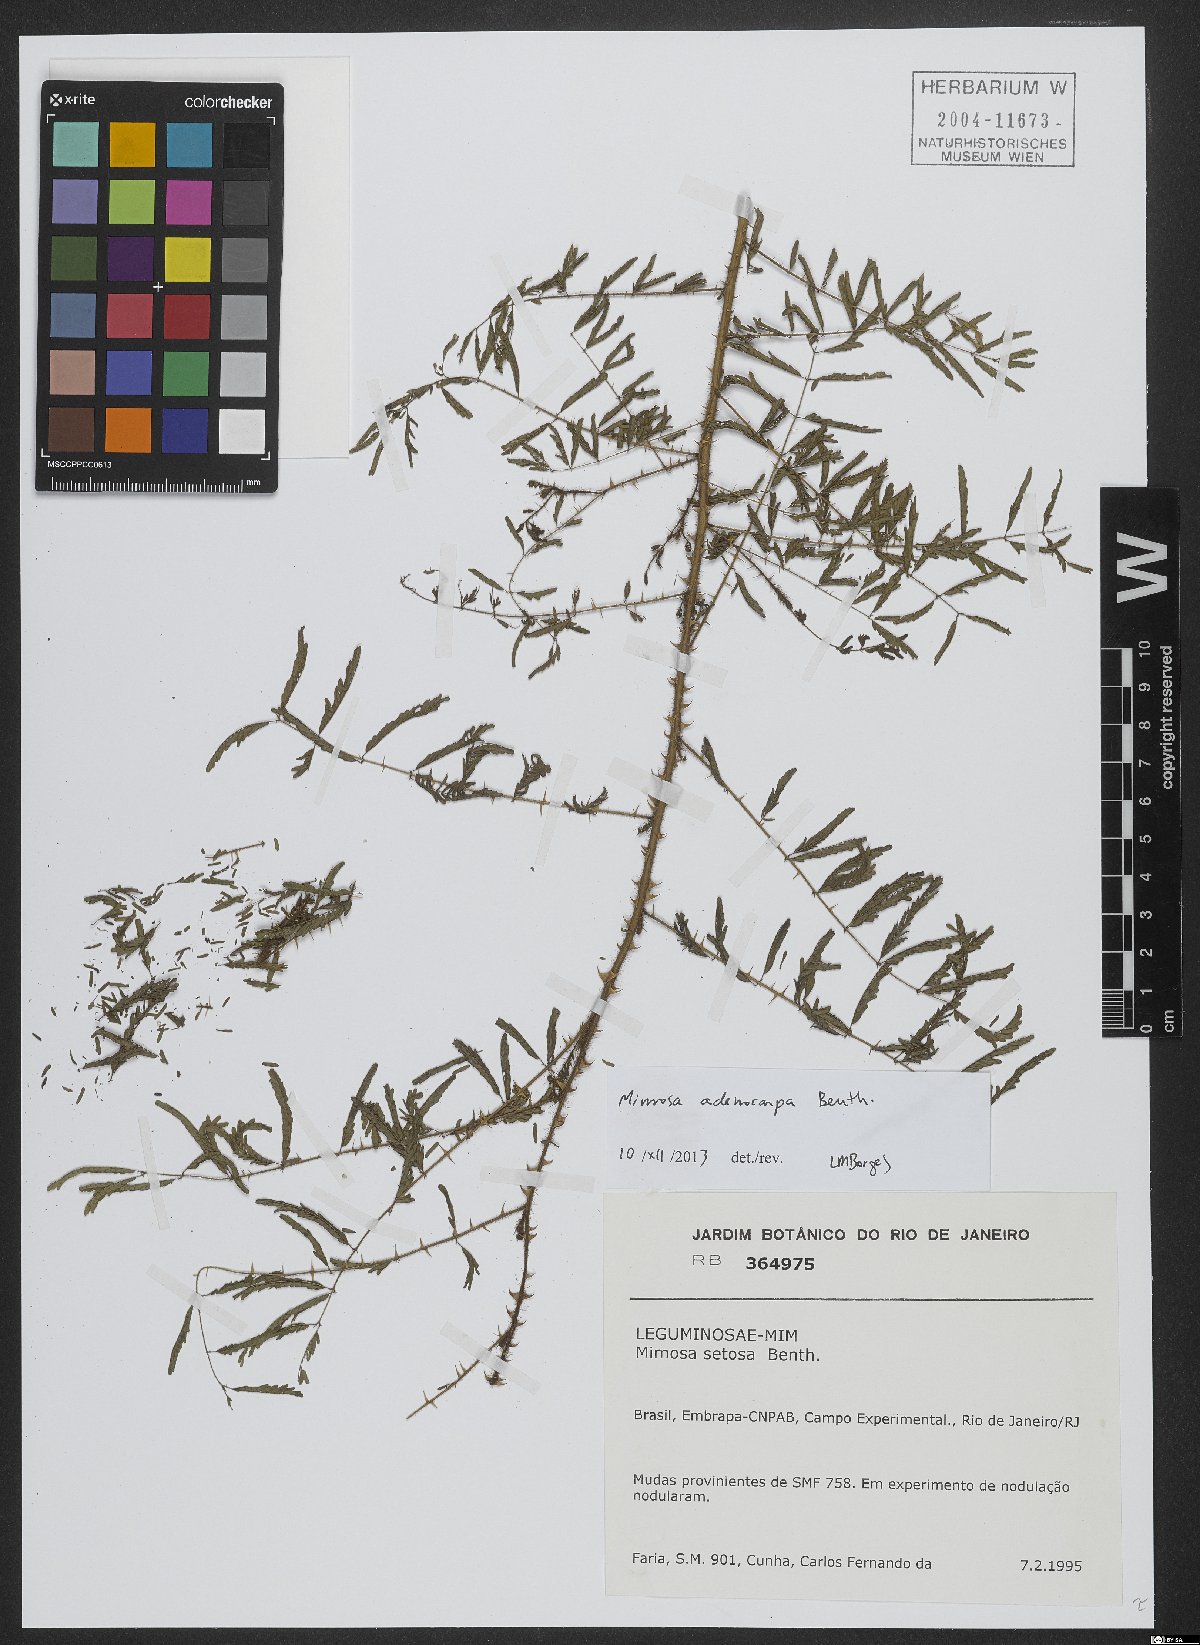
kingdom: Plantae
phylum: Tracheophyta
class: Magnoliopsida
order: Fabales
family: Fabaceae
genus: Mimosa
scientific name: Mimosa adenocarpa
